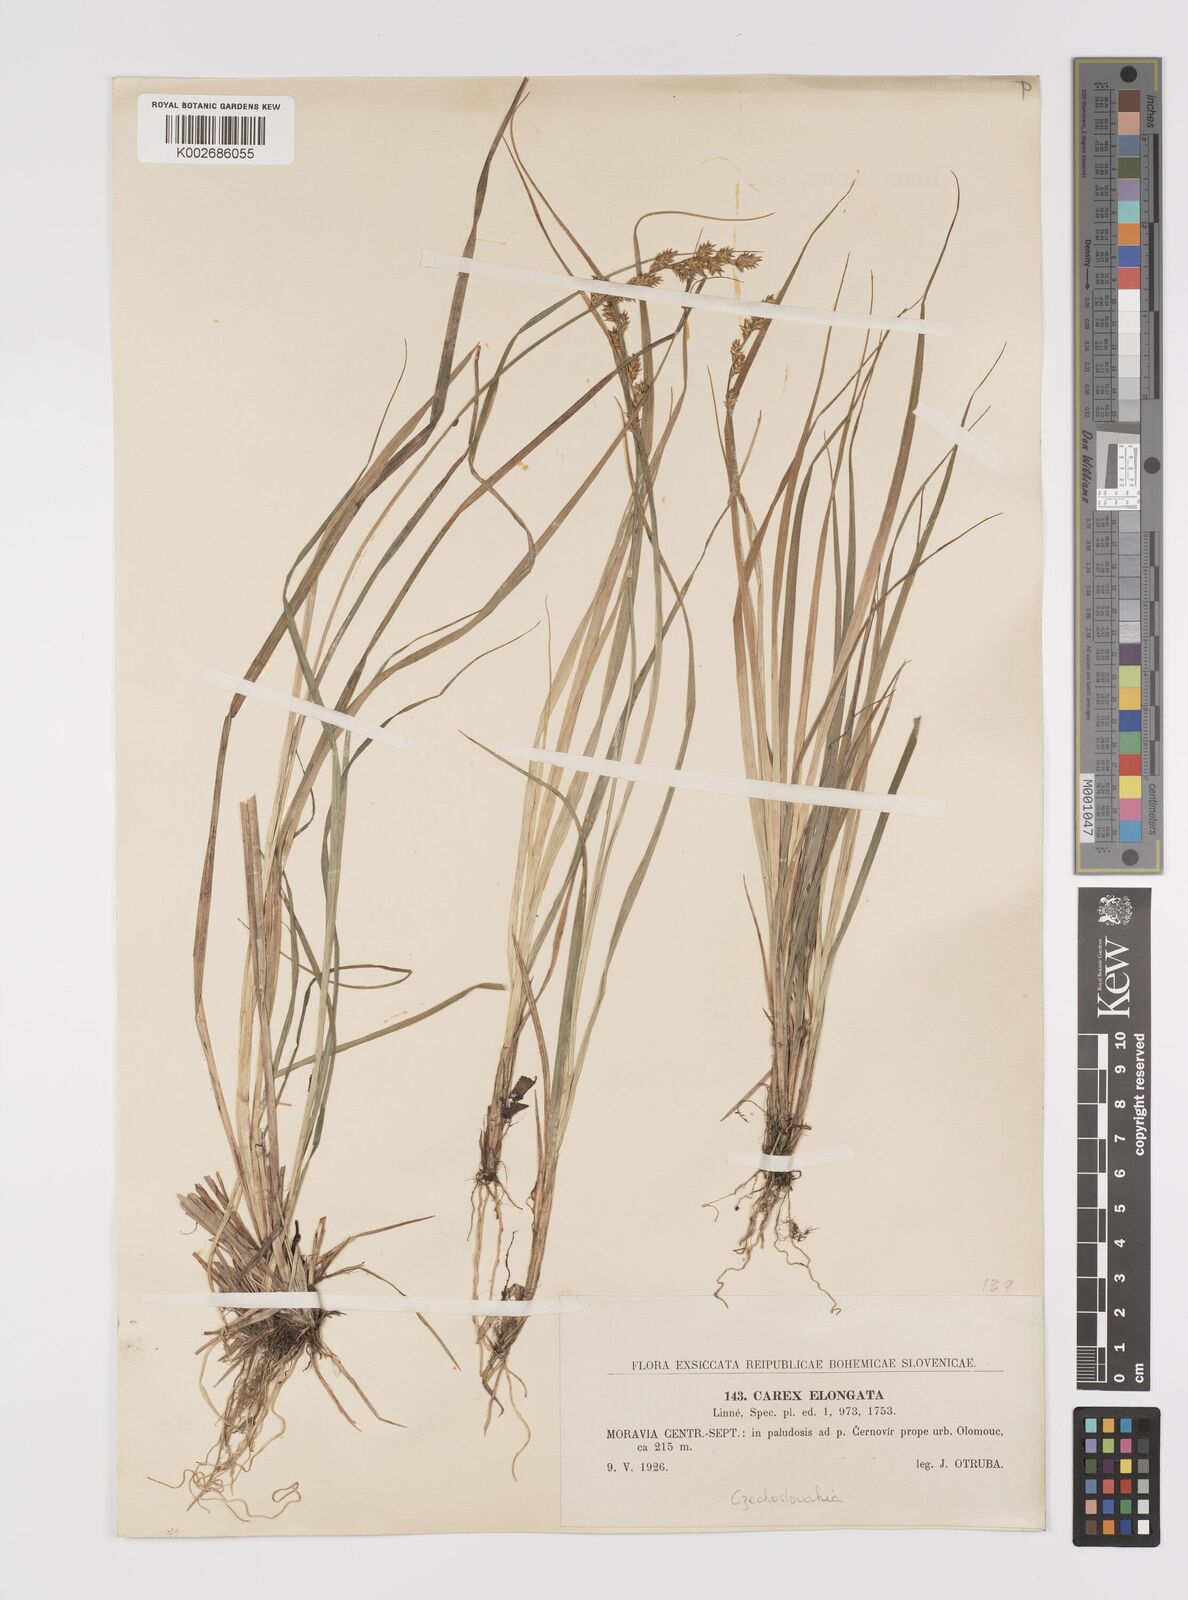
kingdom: Plantae
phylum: Tracheophyta
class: Liliopsida
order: Poales
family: Cyperaceae
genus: Carex
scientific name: Carex elongata
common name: Elongated sedge
